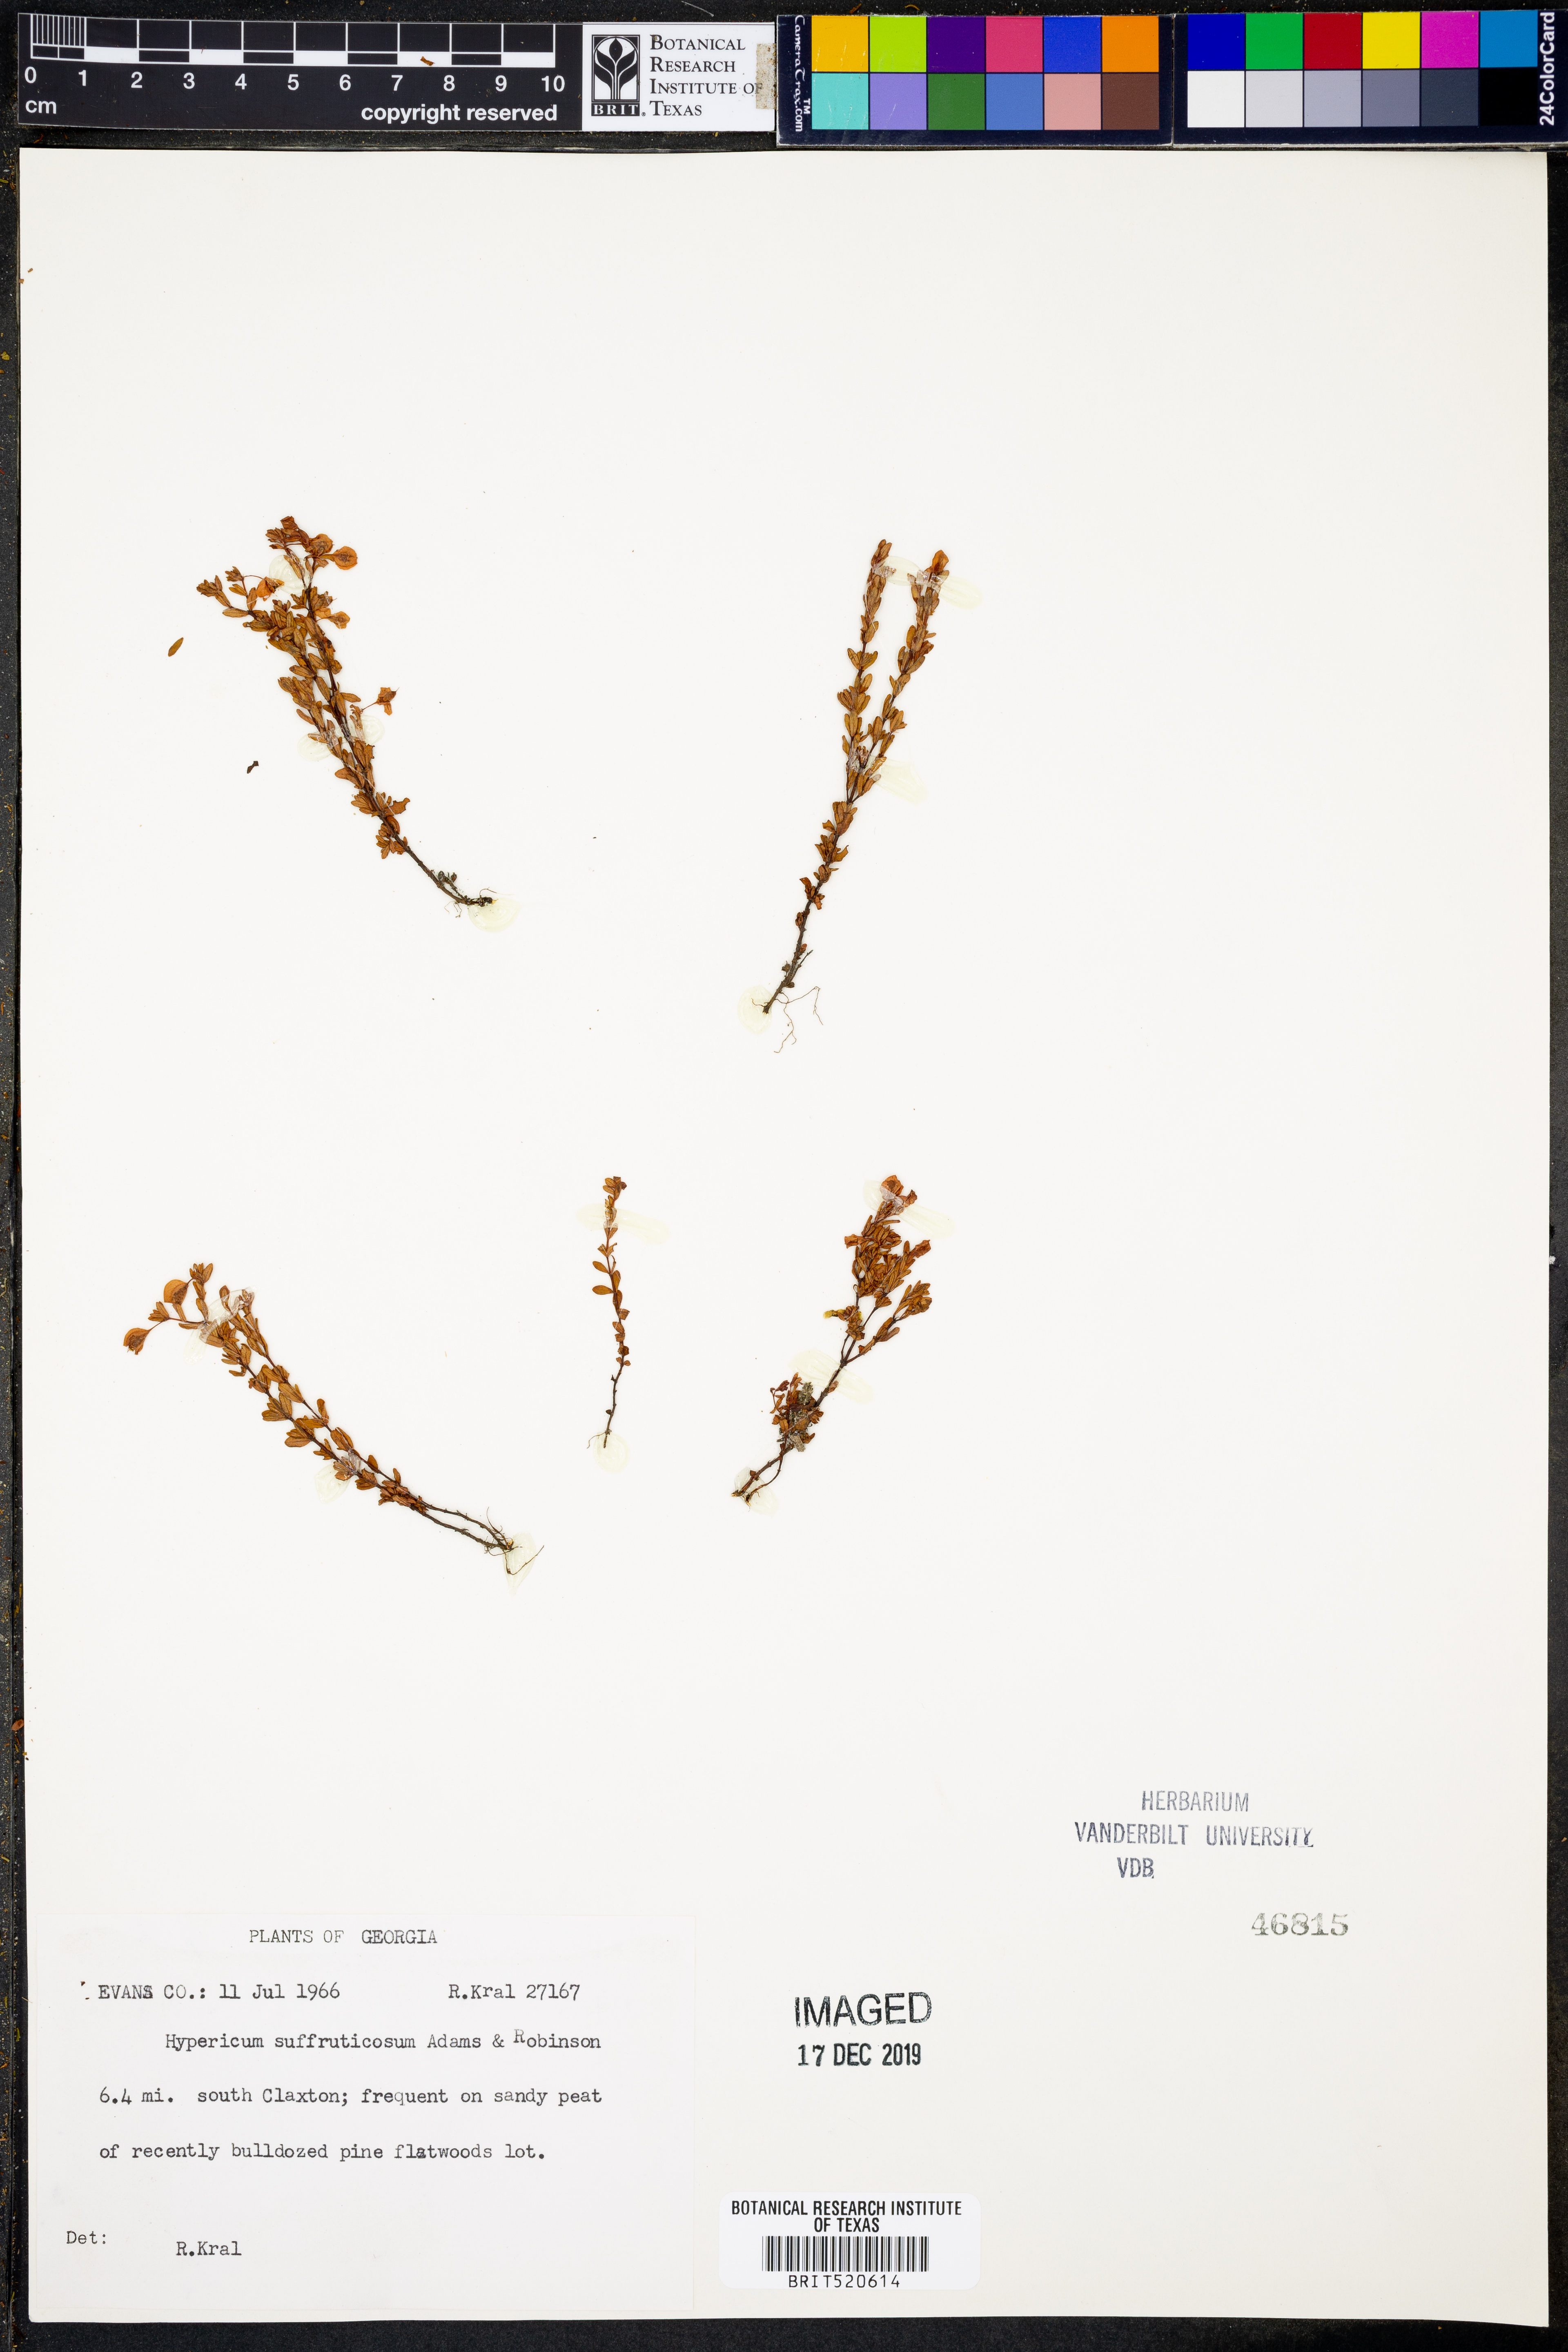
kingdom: Plantae
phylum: Tracheophyta
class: Magnoliopsida
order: Malpighiales
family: Hypericaceae
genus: Hypericum
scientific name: Hypericum suffruticosum
